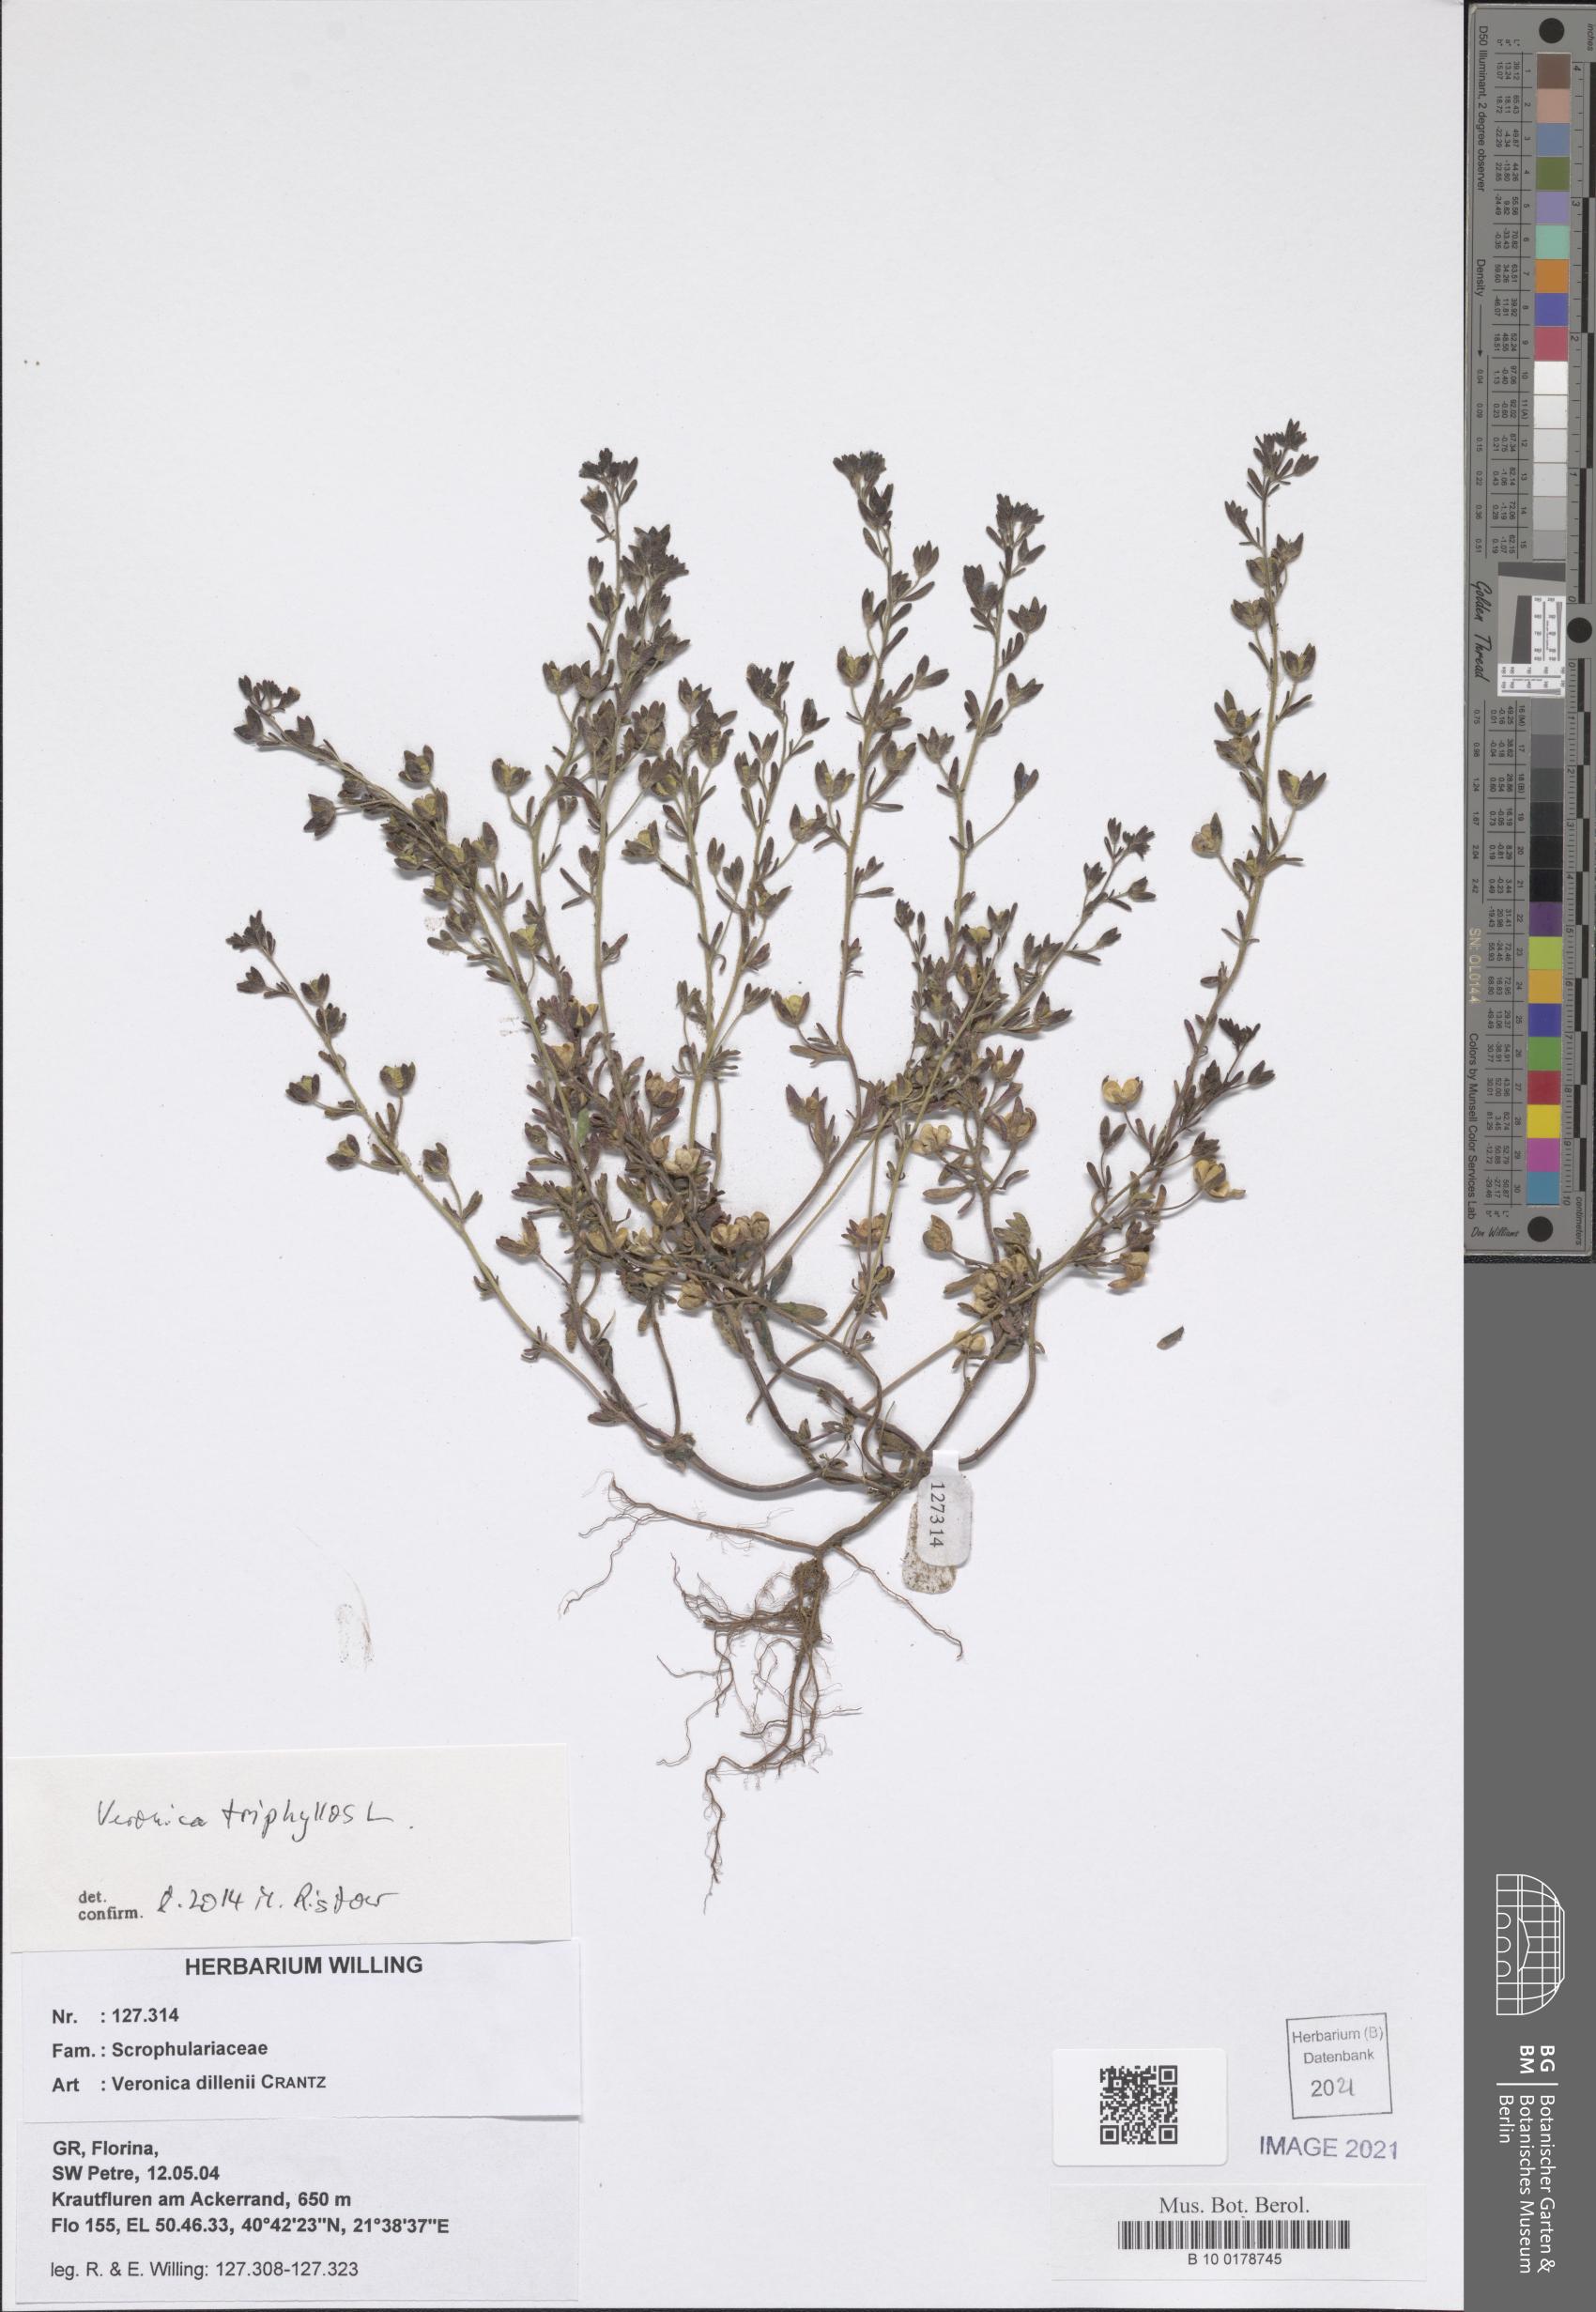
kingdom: Plantae
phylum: Tracheophyta
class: Magnoliopsida
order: Lamiales
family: Plantaginaceae
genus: Veronica
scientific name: Veronica triphyllos
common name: Fingered speedwell
